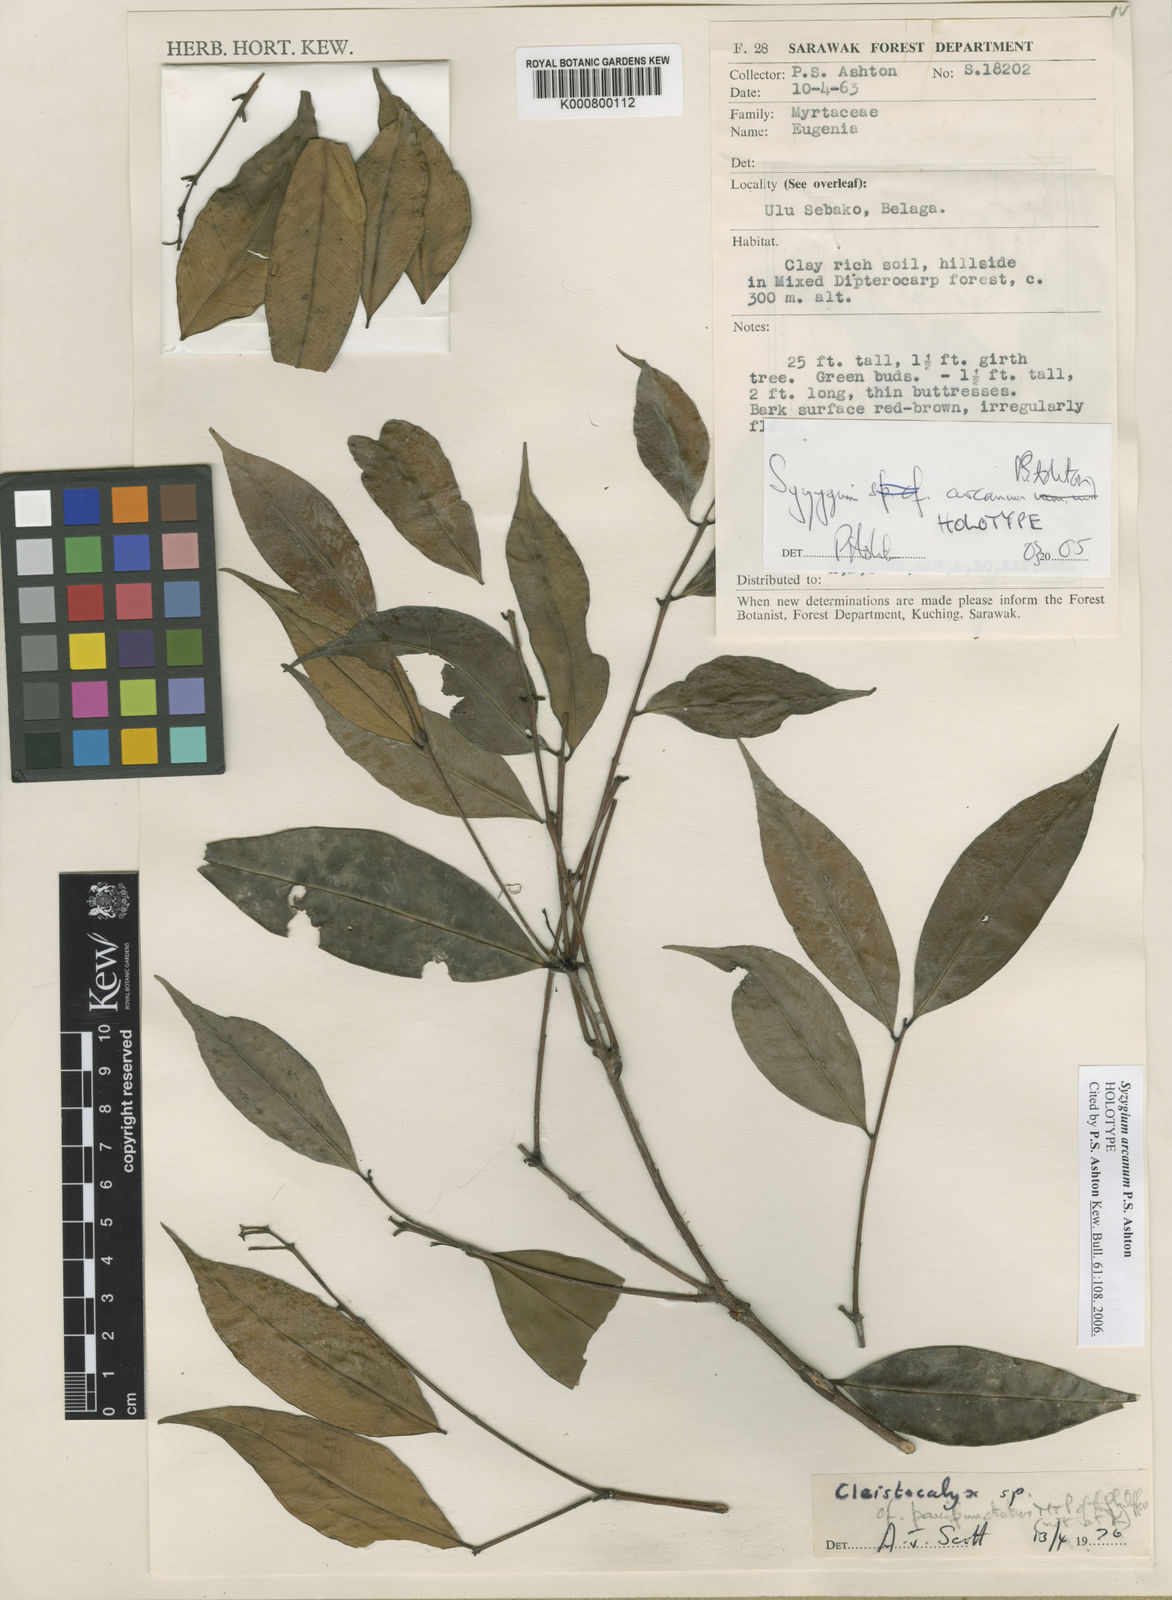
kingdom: Plantae
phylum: Tracheophyta
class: Magnoliopsida
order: Myrtales
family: Myrtaceae
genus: Syzygium
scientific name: Syzygium arcanum
